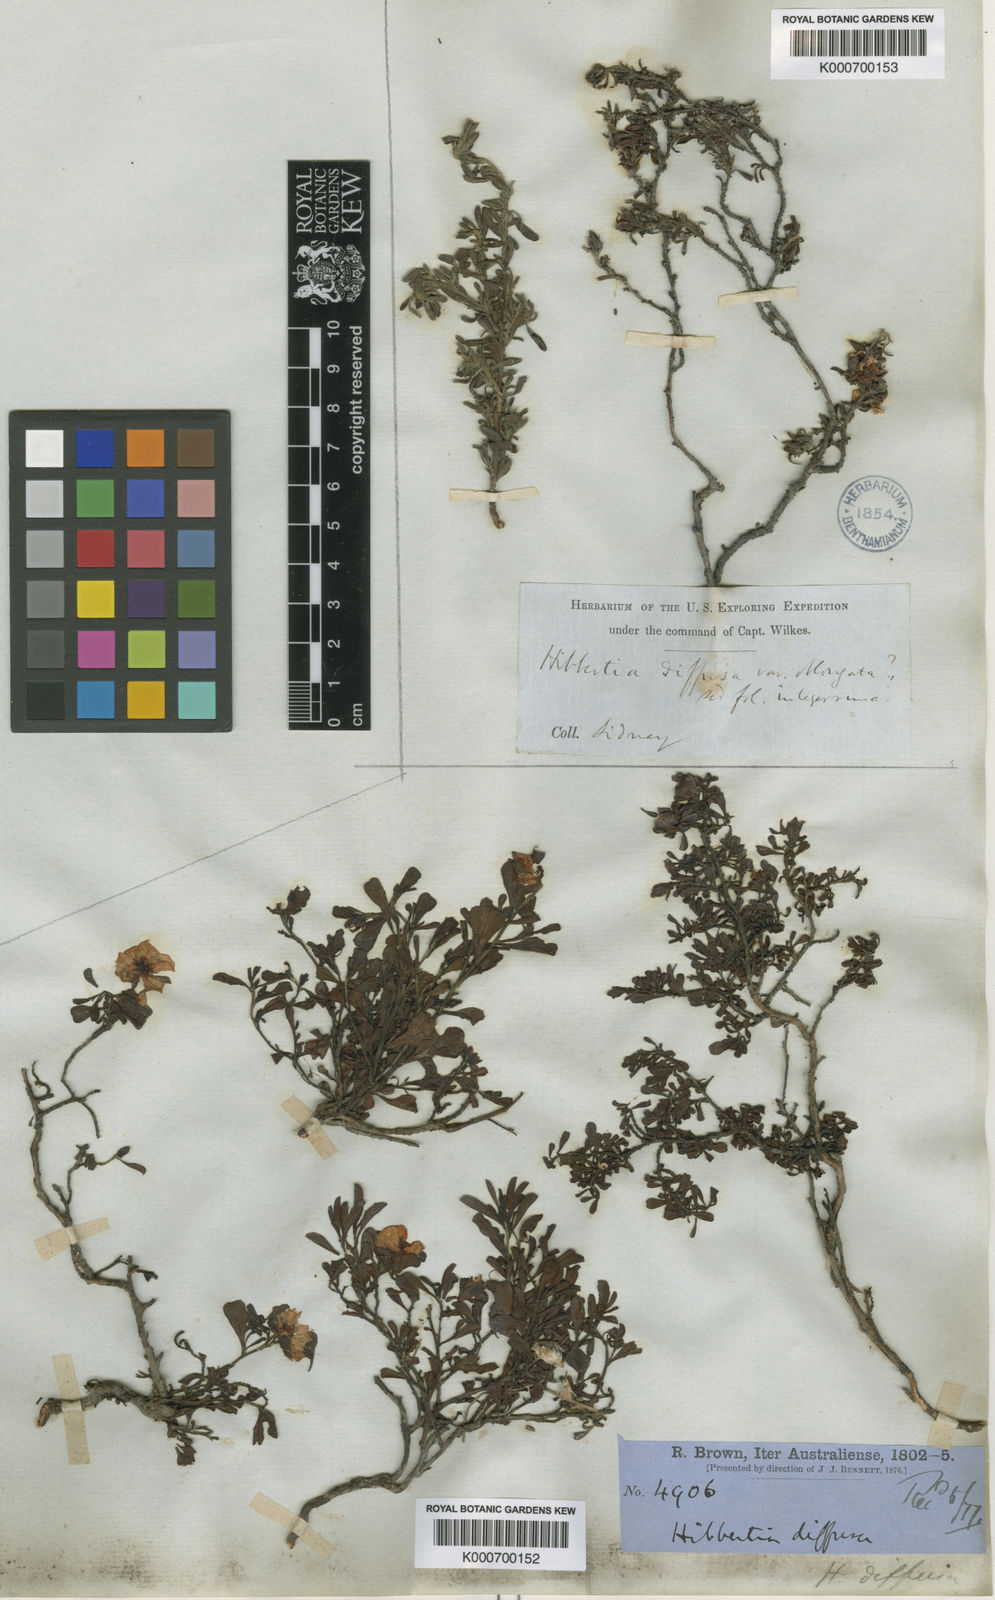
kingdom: Plantae
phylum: Tracheophyta
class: Magnoliopsida
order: Dilleniales
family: Dilleniaceae
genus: Hibbertia
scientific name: Hibbertia
